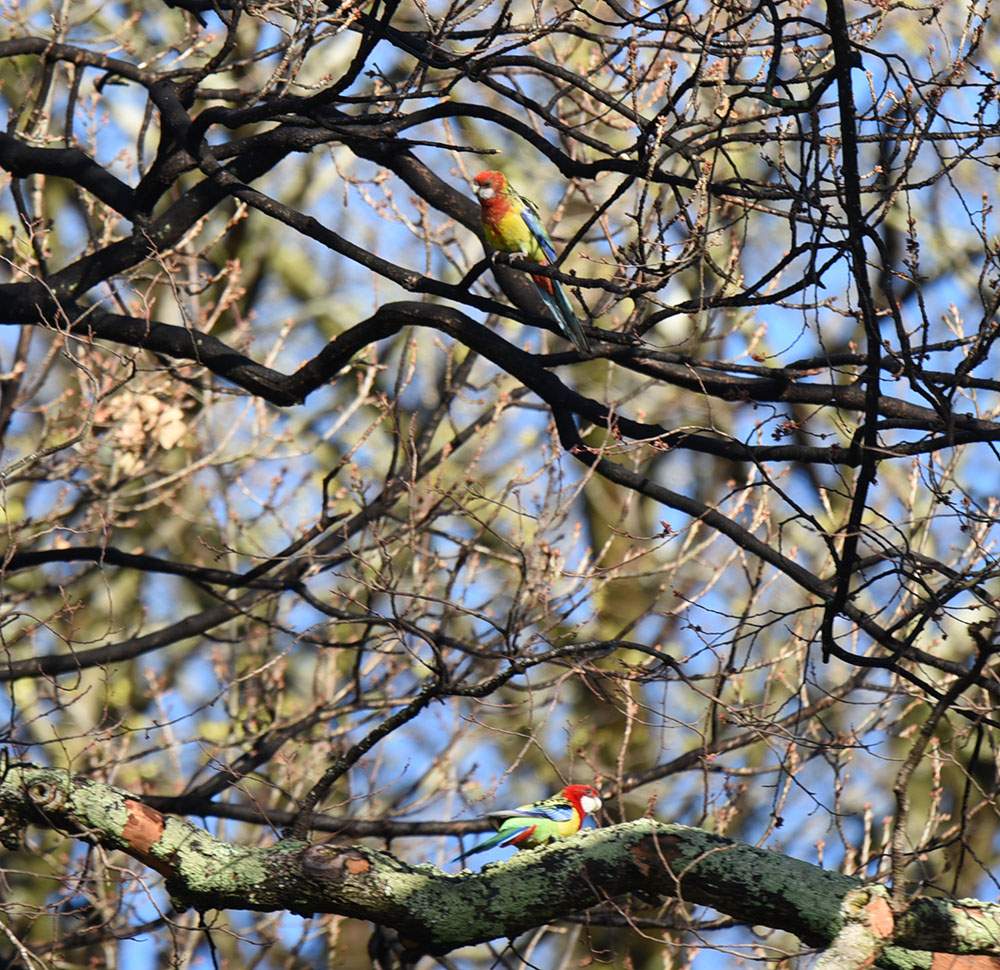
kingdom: Animalia
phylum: Chordata
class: Aves
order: Psittaciformes
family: Psittacidae
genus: Platycercus
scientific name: Platycercus eximius
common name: Eastern rosella
